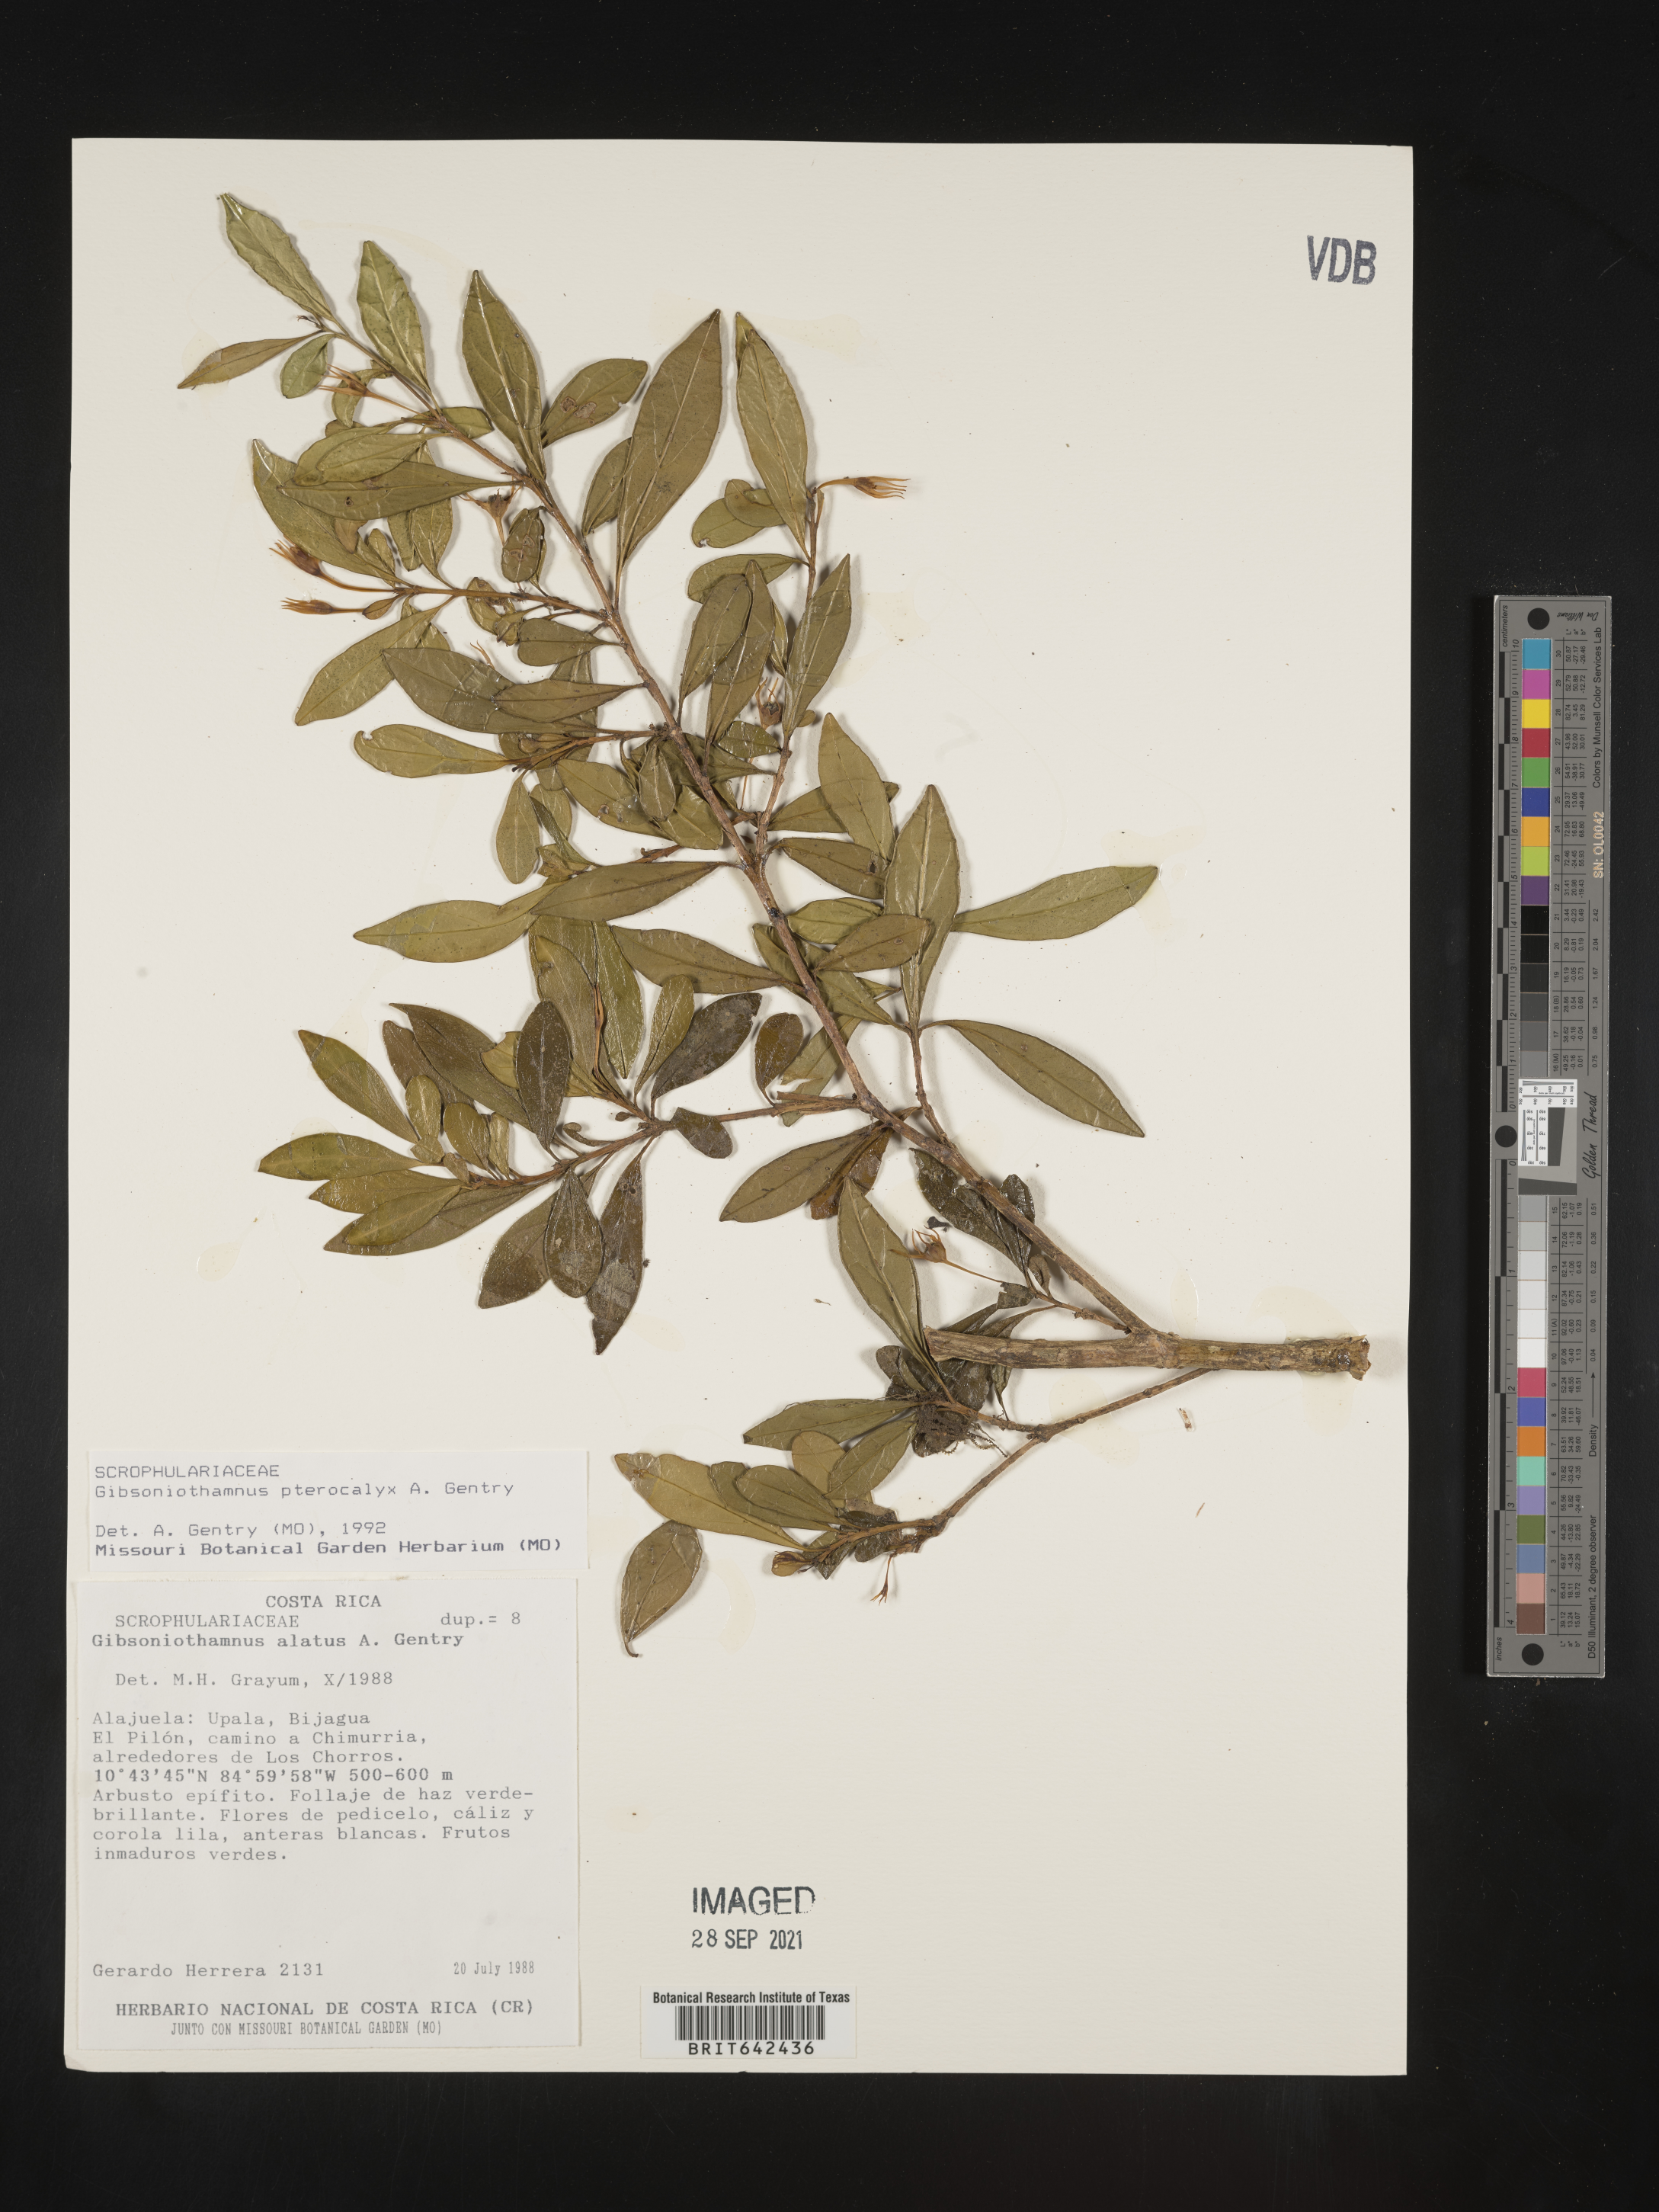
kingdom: Plantae
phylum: Tracheophyta
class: Magnoliopsida
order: Lamiales
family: Schlegeliaceae
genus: Gibsoniothamnus
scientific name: Gibsoniothamnus epiphyticus
